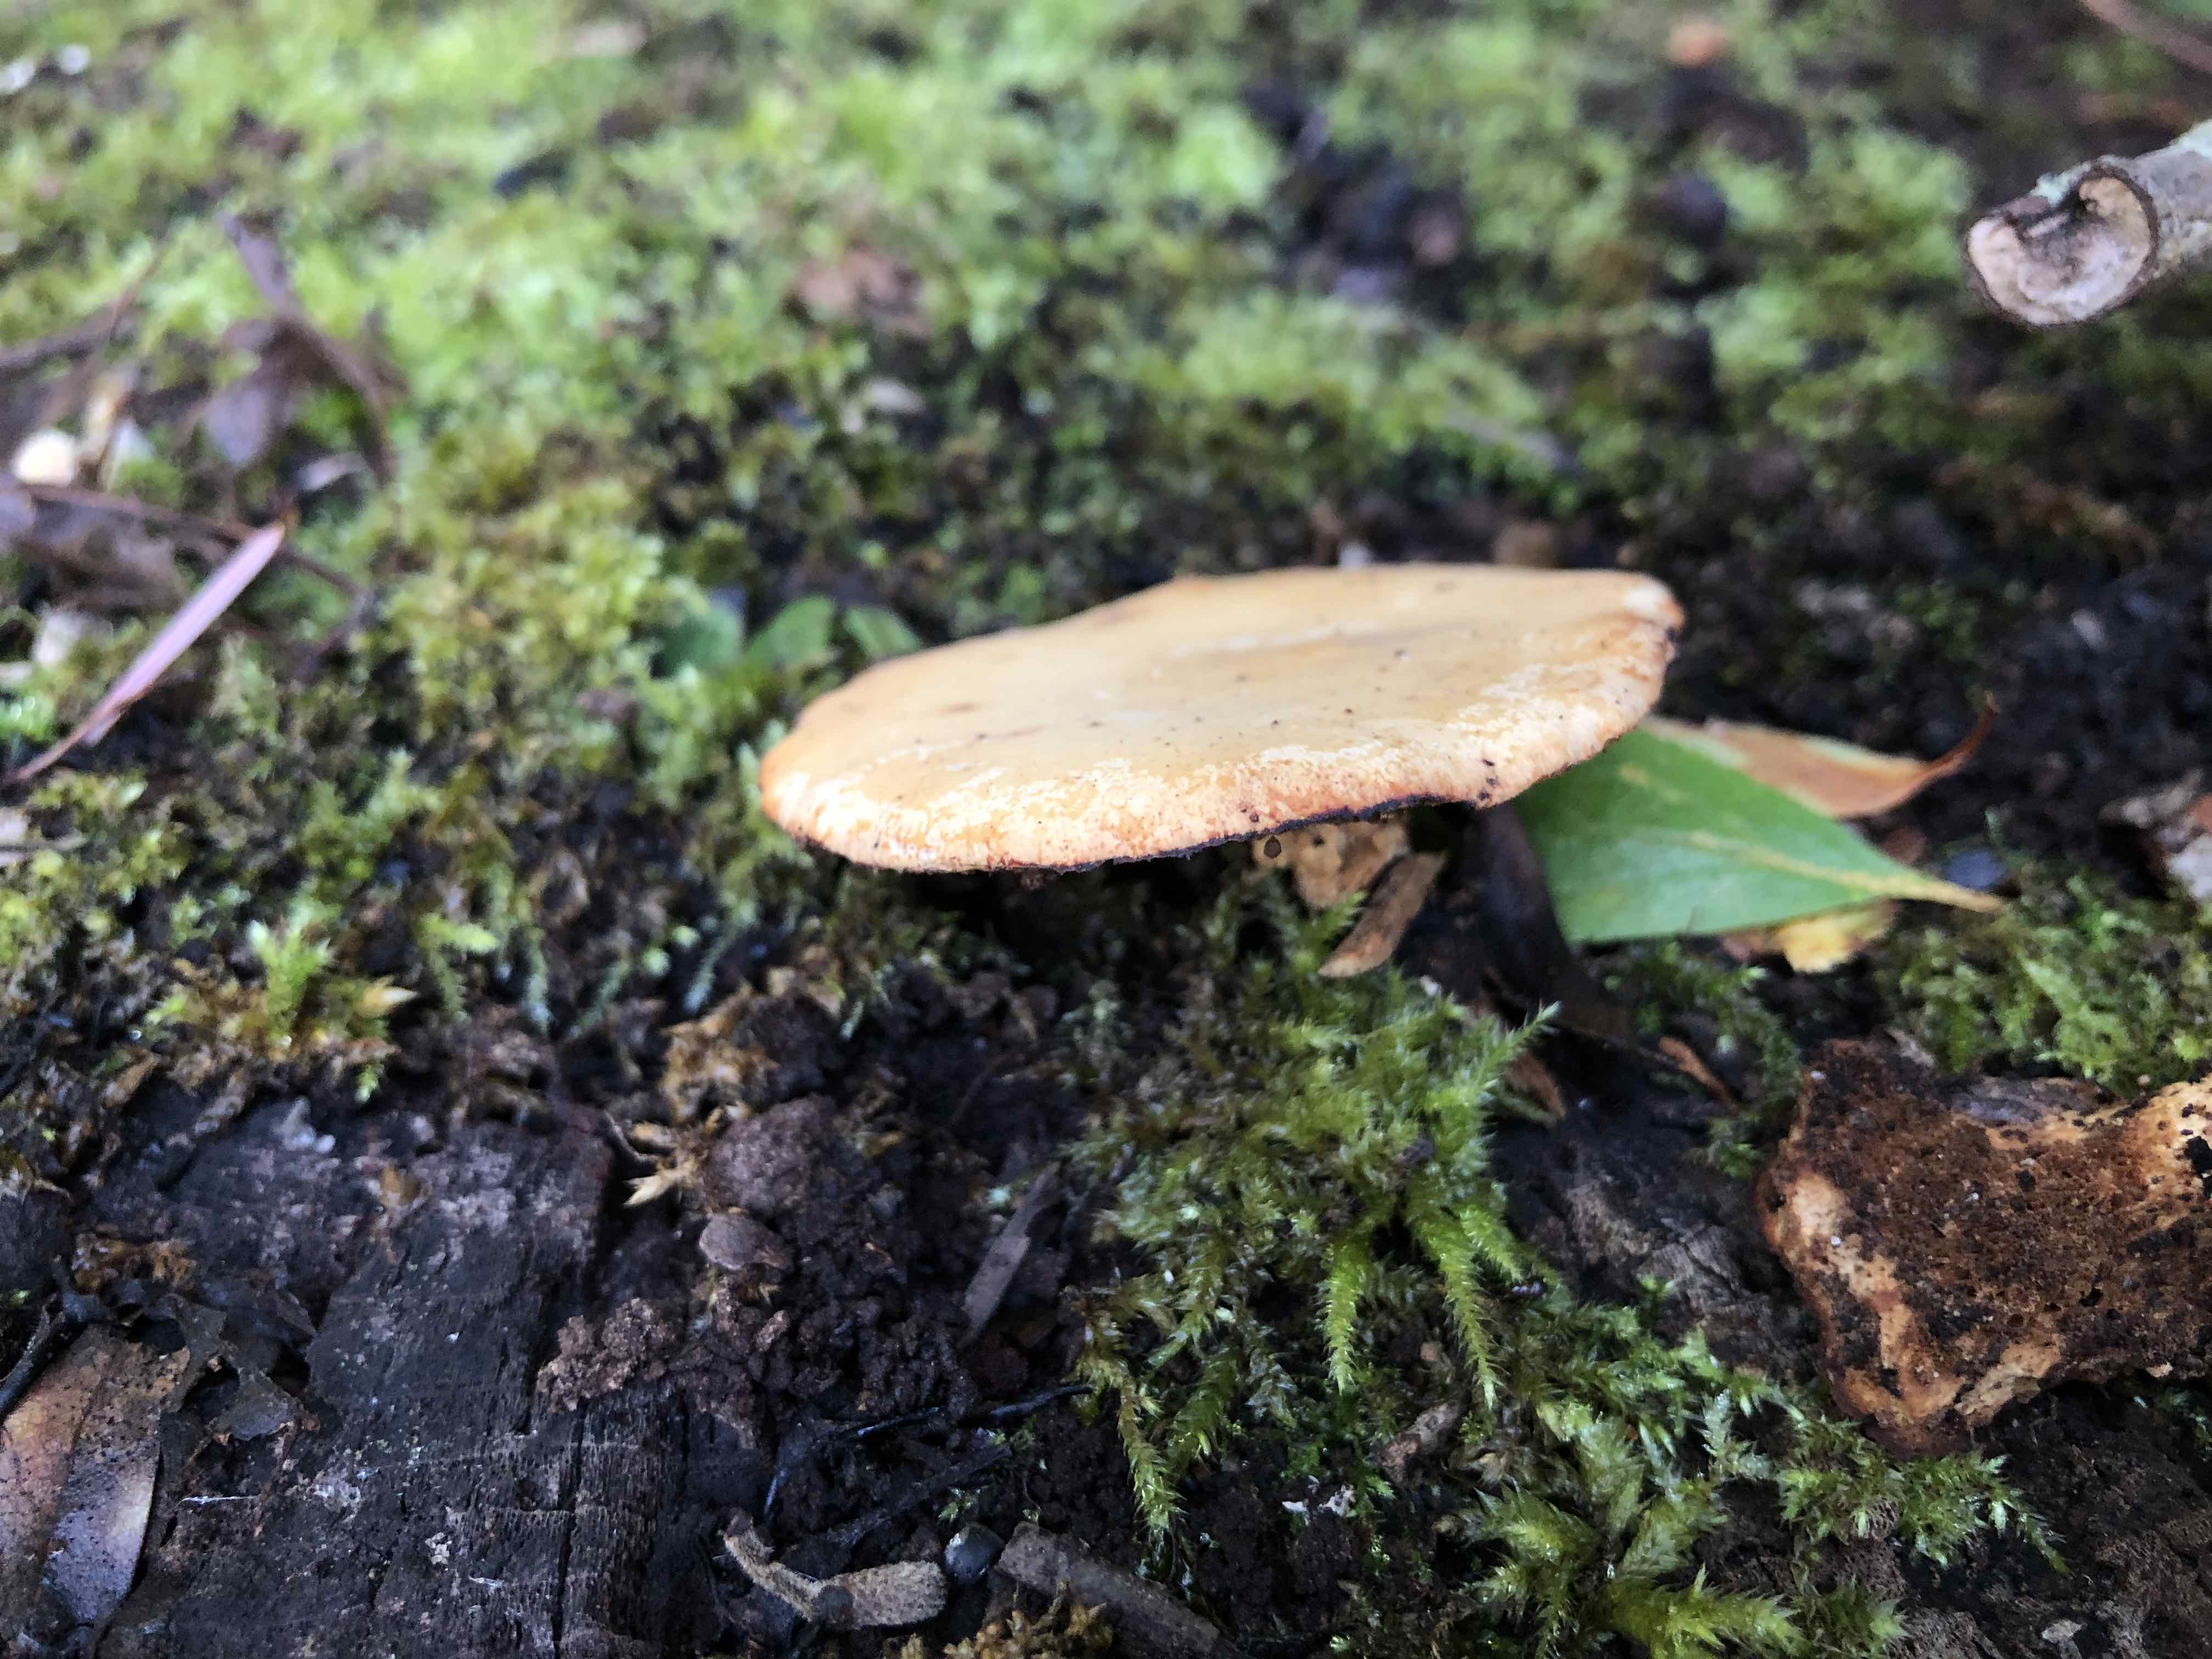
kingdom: Fungi
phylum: Basidiomycota
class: Agaricomycetes
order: Polyporales
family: Polyporaceae
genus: Cerioporus
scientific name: Cerioporus varius
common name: foranderlig stilkporesvamp
